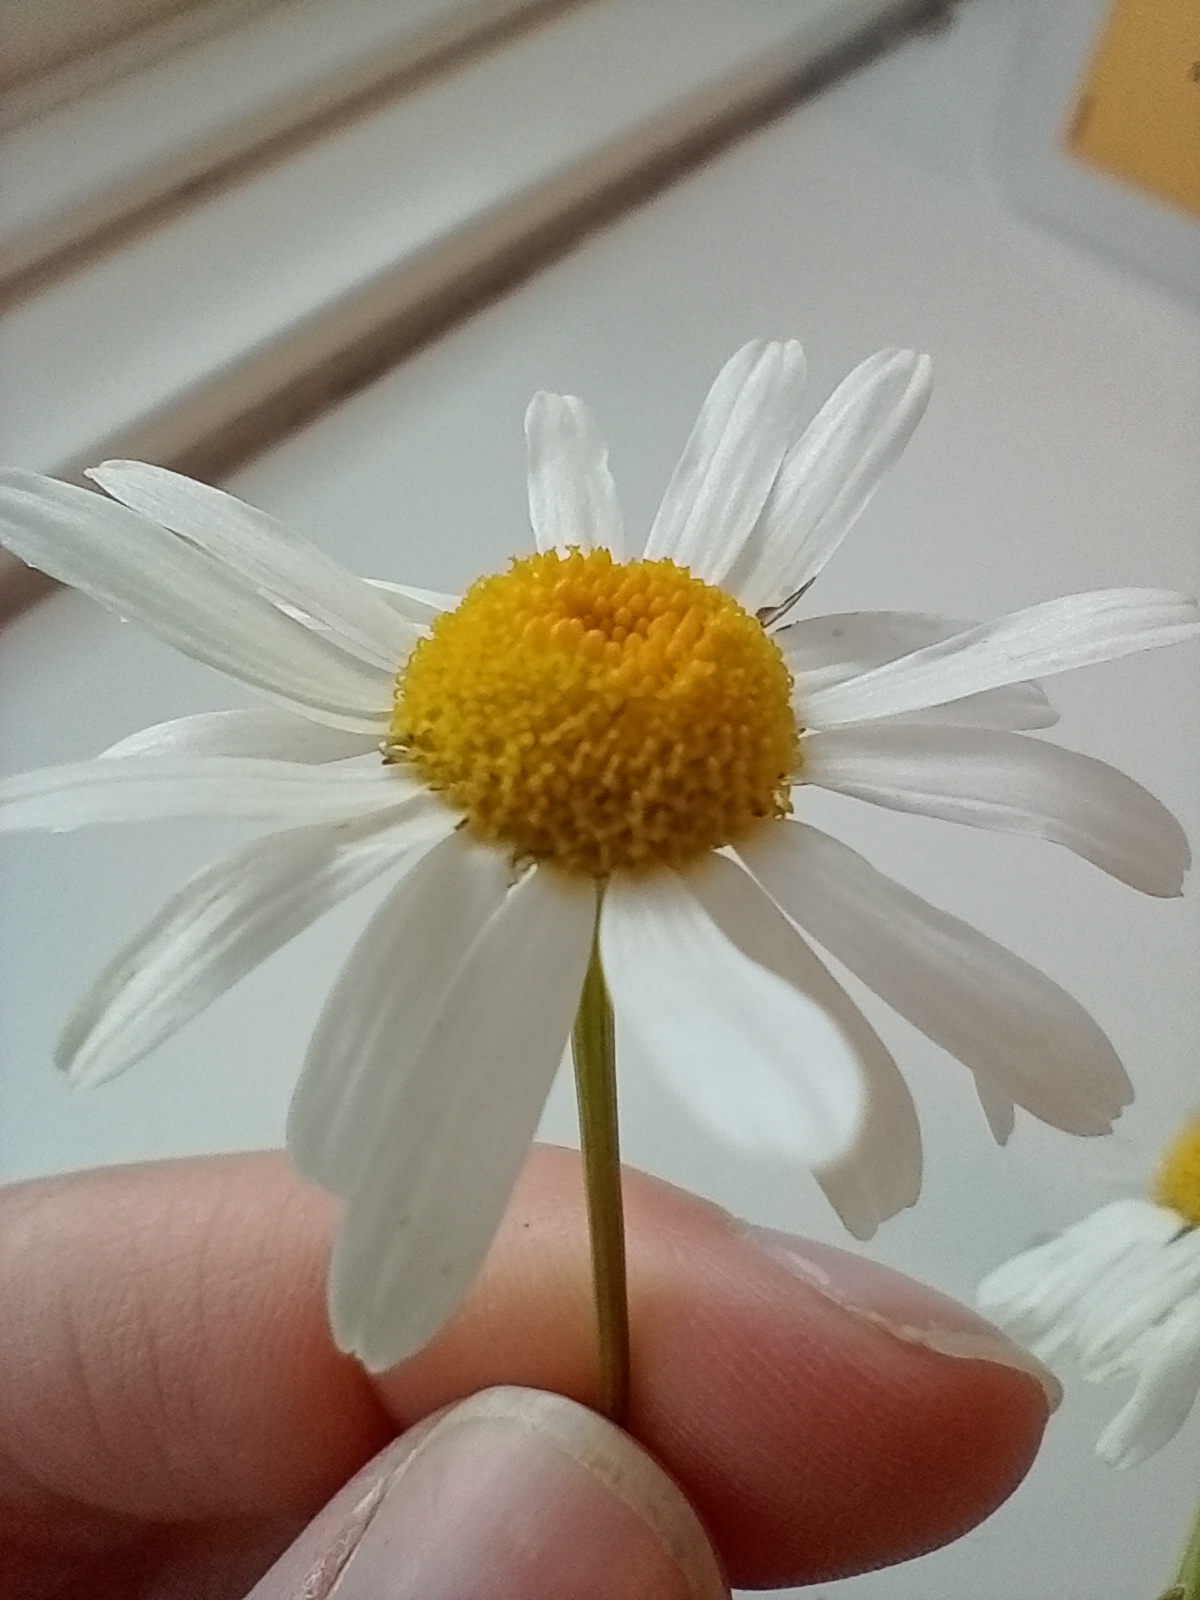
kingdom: Plantae
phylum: Tracheophyta
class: Magnoliopsida
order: Asterales
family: Asteraceae
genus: Tripleurospermum
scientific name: Tripleurospermum inodorum
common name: Lugtløs kamille
